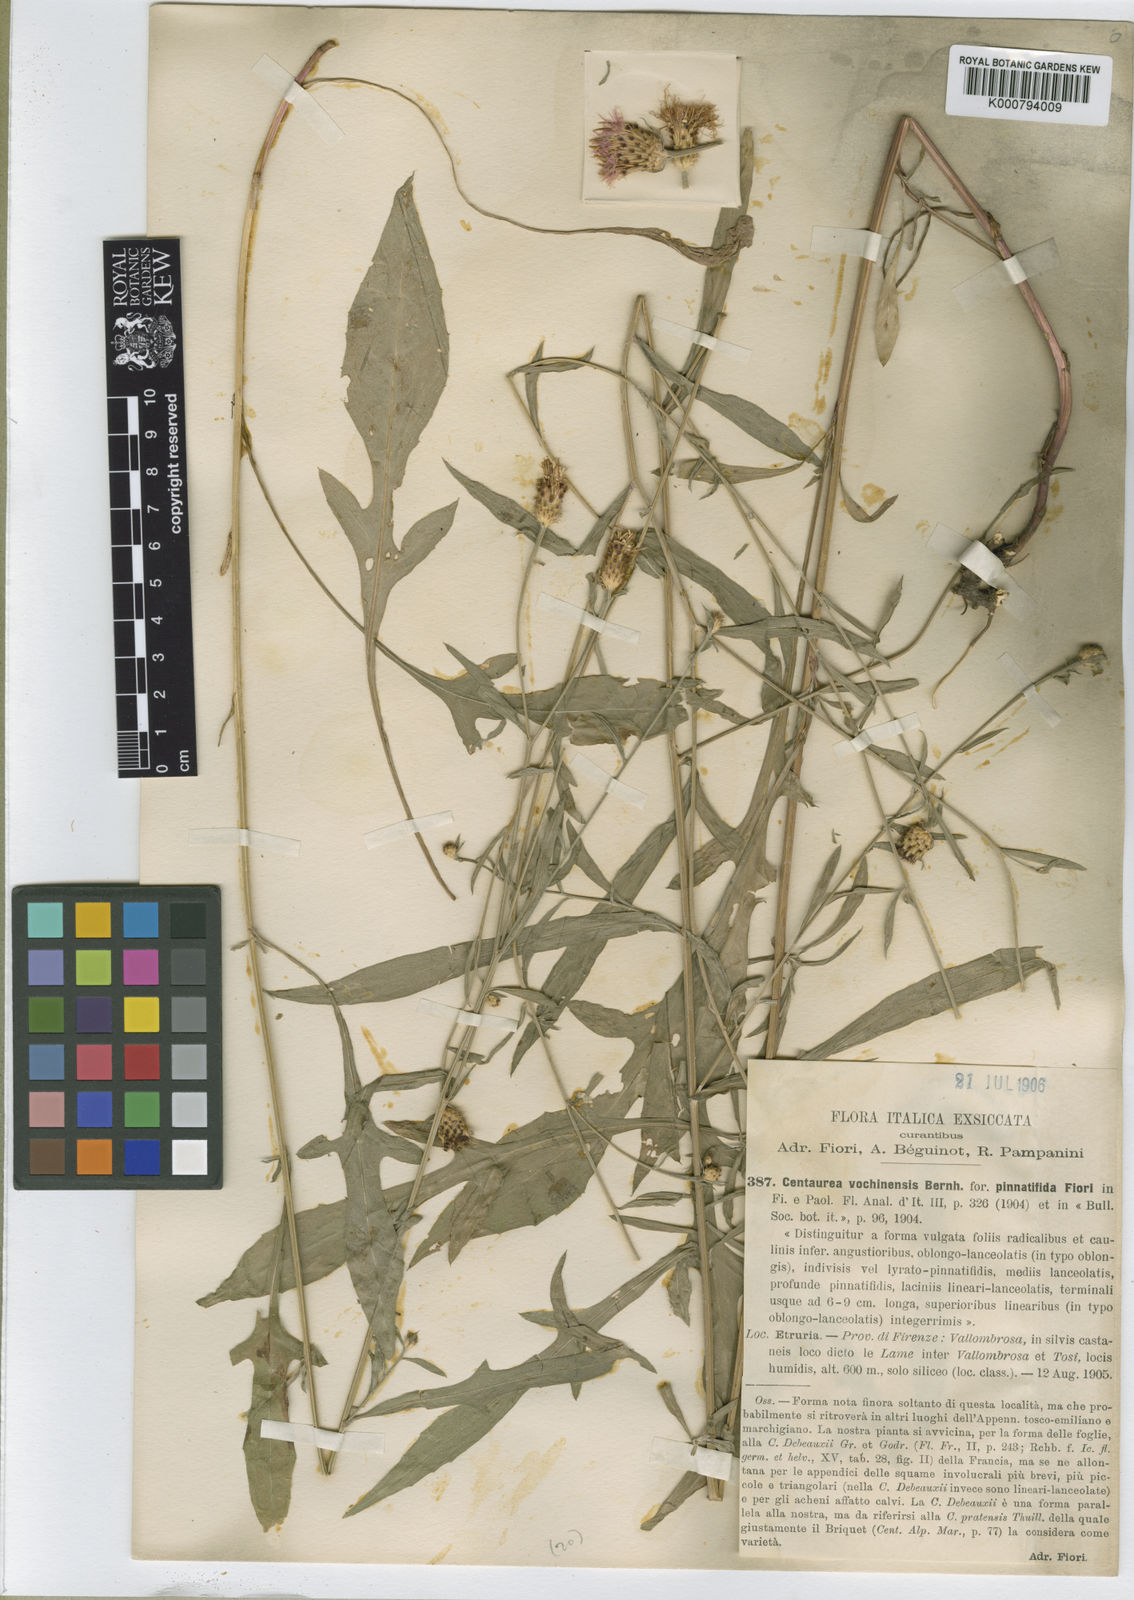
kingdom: Plantae
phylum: Tracheophyta
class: Magnoliopsida
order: Asterales
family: Asteraceae
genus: Centaurea
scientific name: Centaurea nigrescens
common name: Tyrol knapweed
